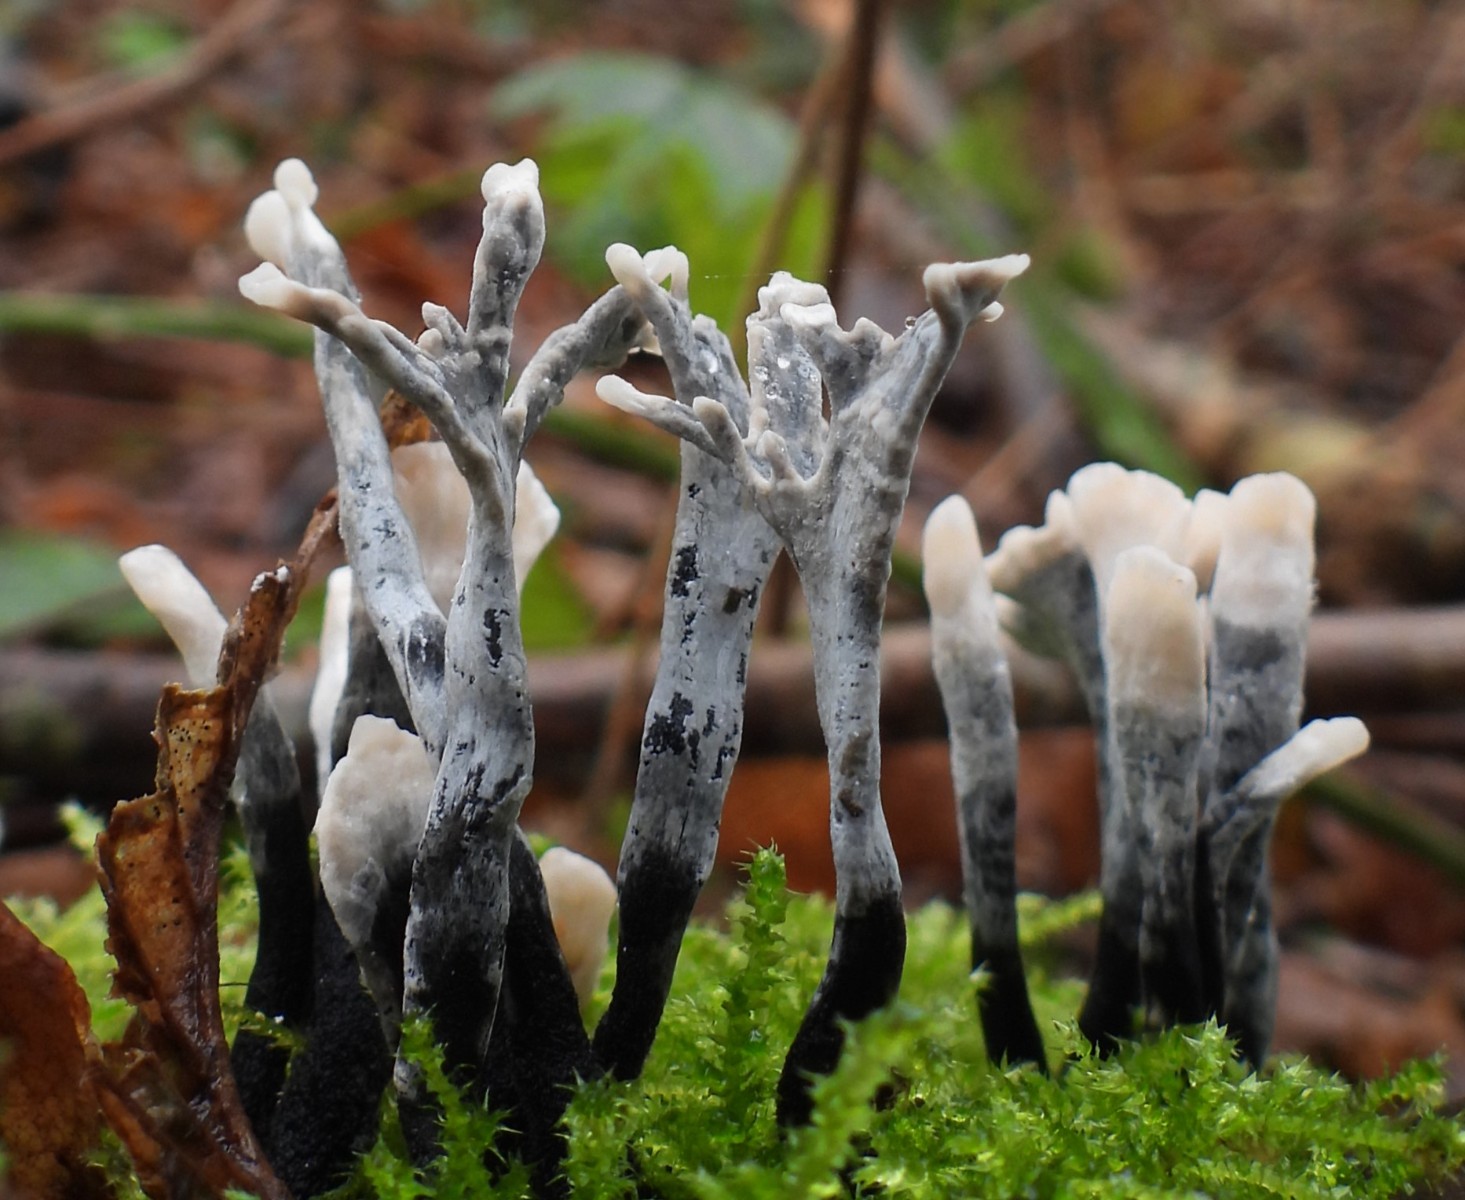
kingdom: Fungi
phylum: Ascomycota
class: Sordariomycetes
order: Xylariales
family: Xylariaceae
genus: Xylaria
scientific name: Xylaria hypoxylon
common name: grenet stødsvamp
